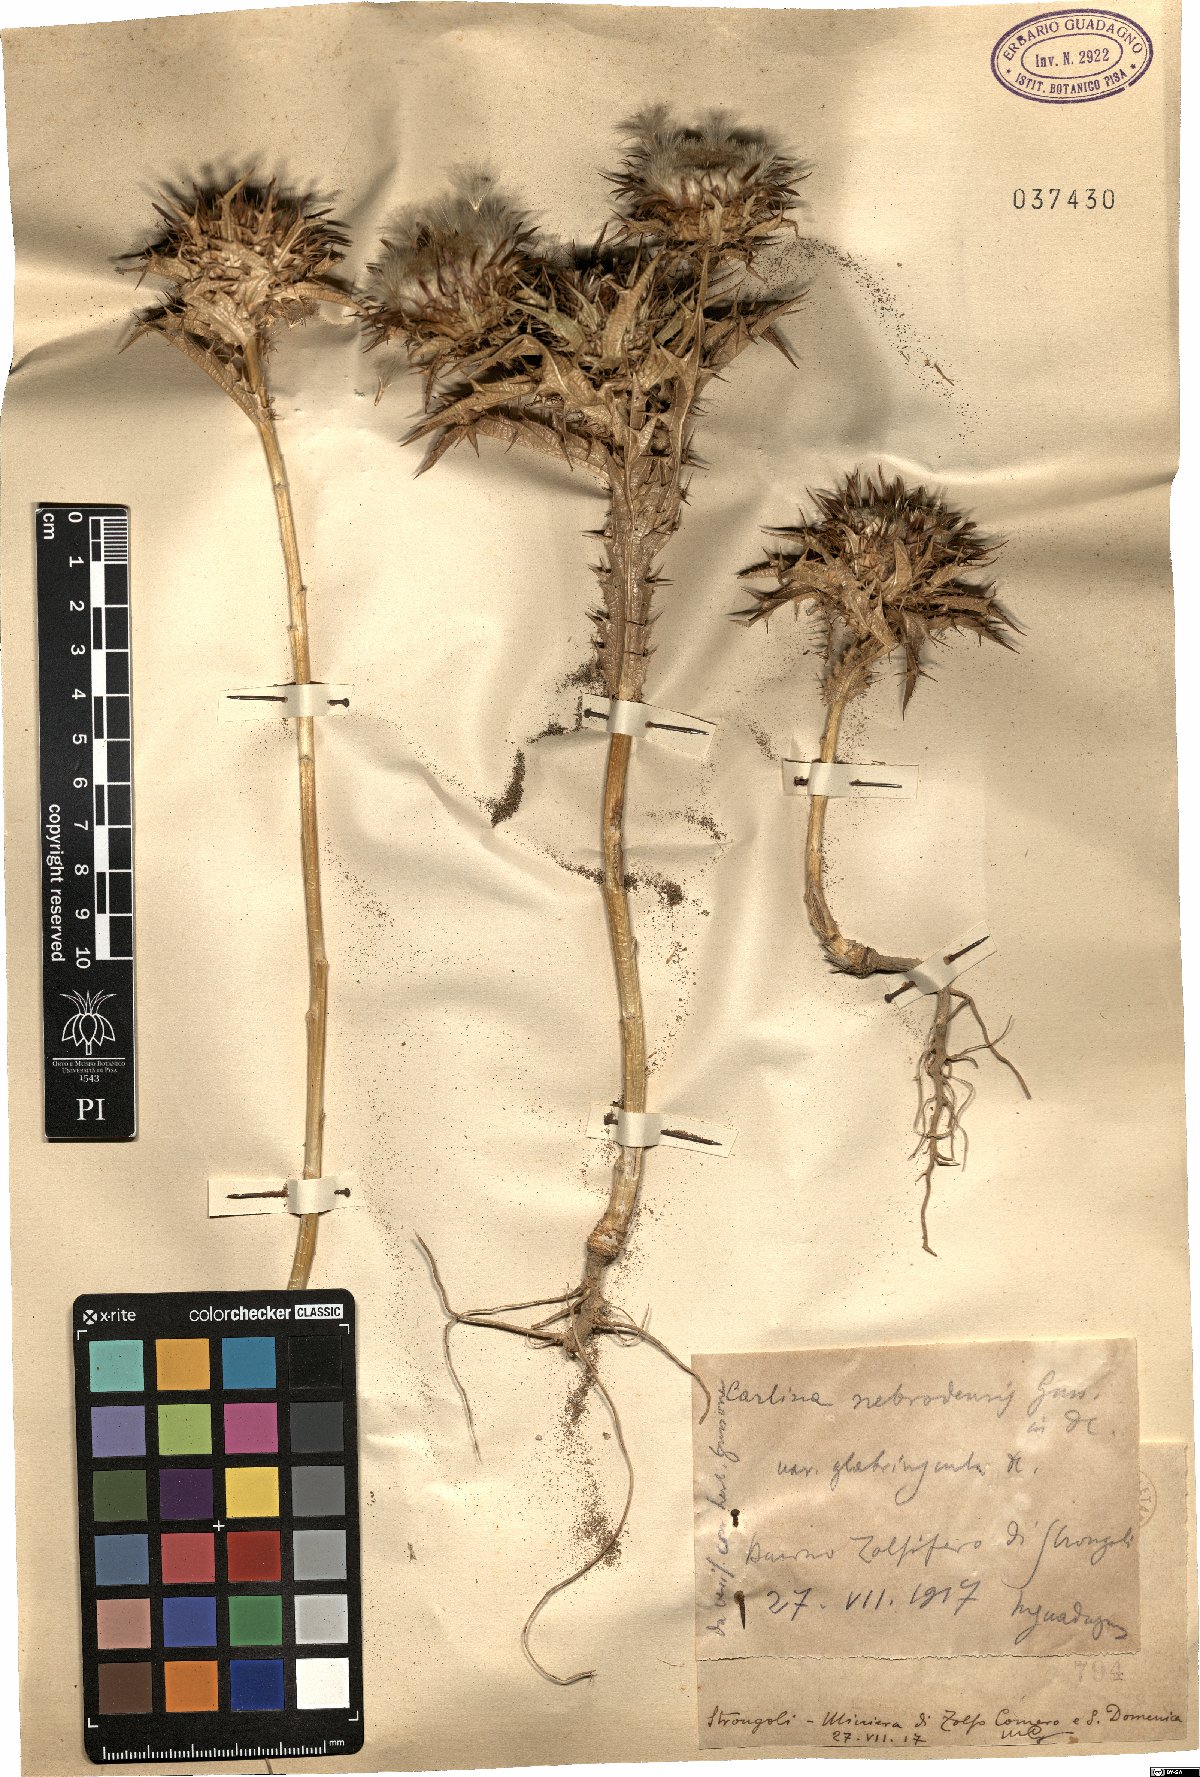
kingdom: Plantae
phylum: Tracheophyta
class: Magnoliopsida
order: Asterales
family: Asteraceae
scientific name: Asteraceae
